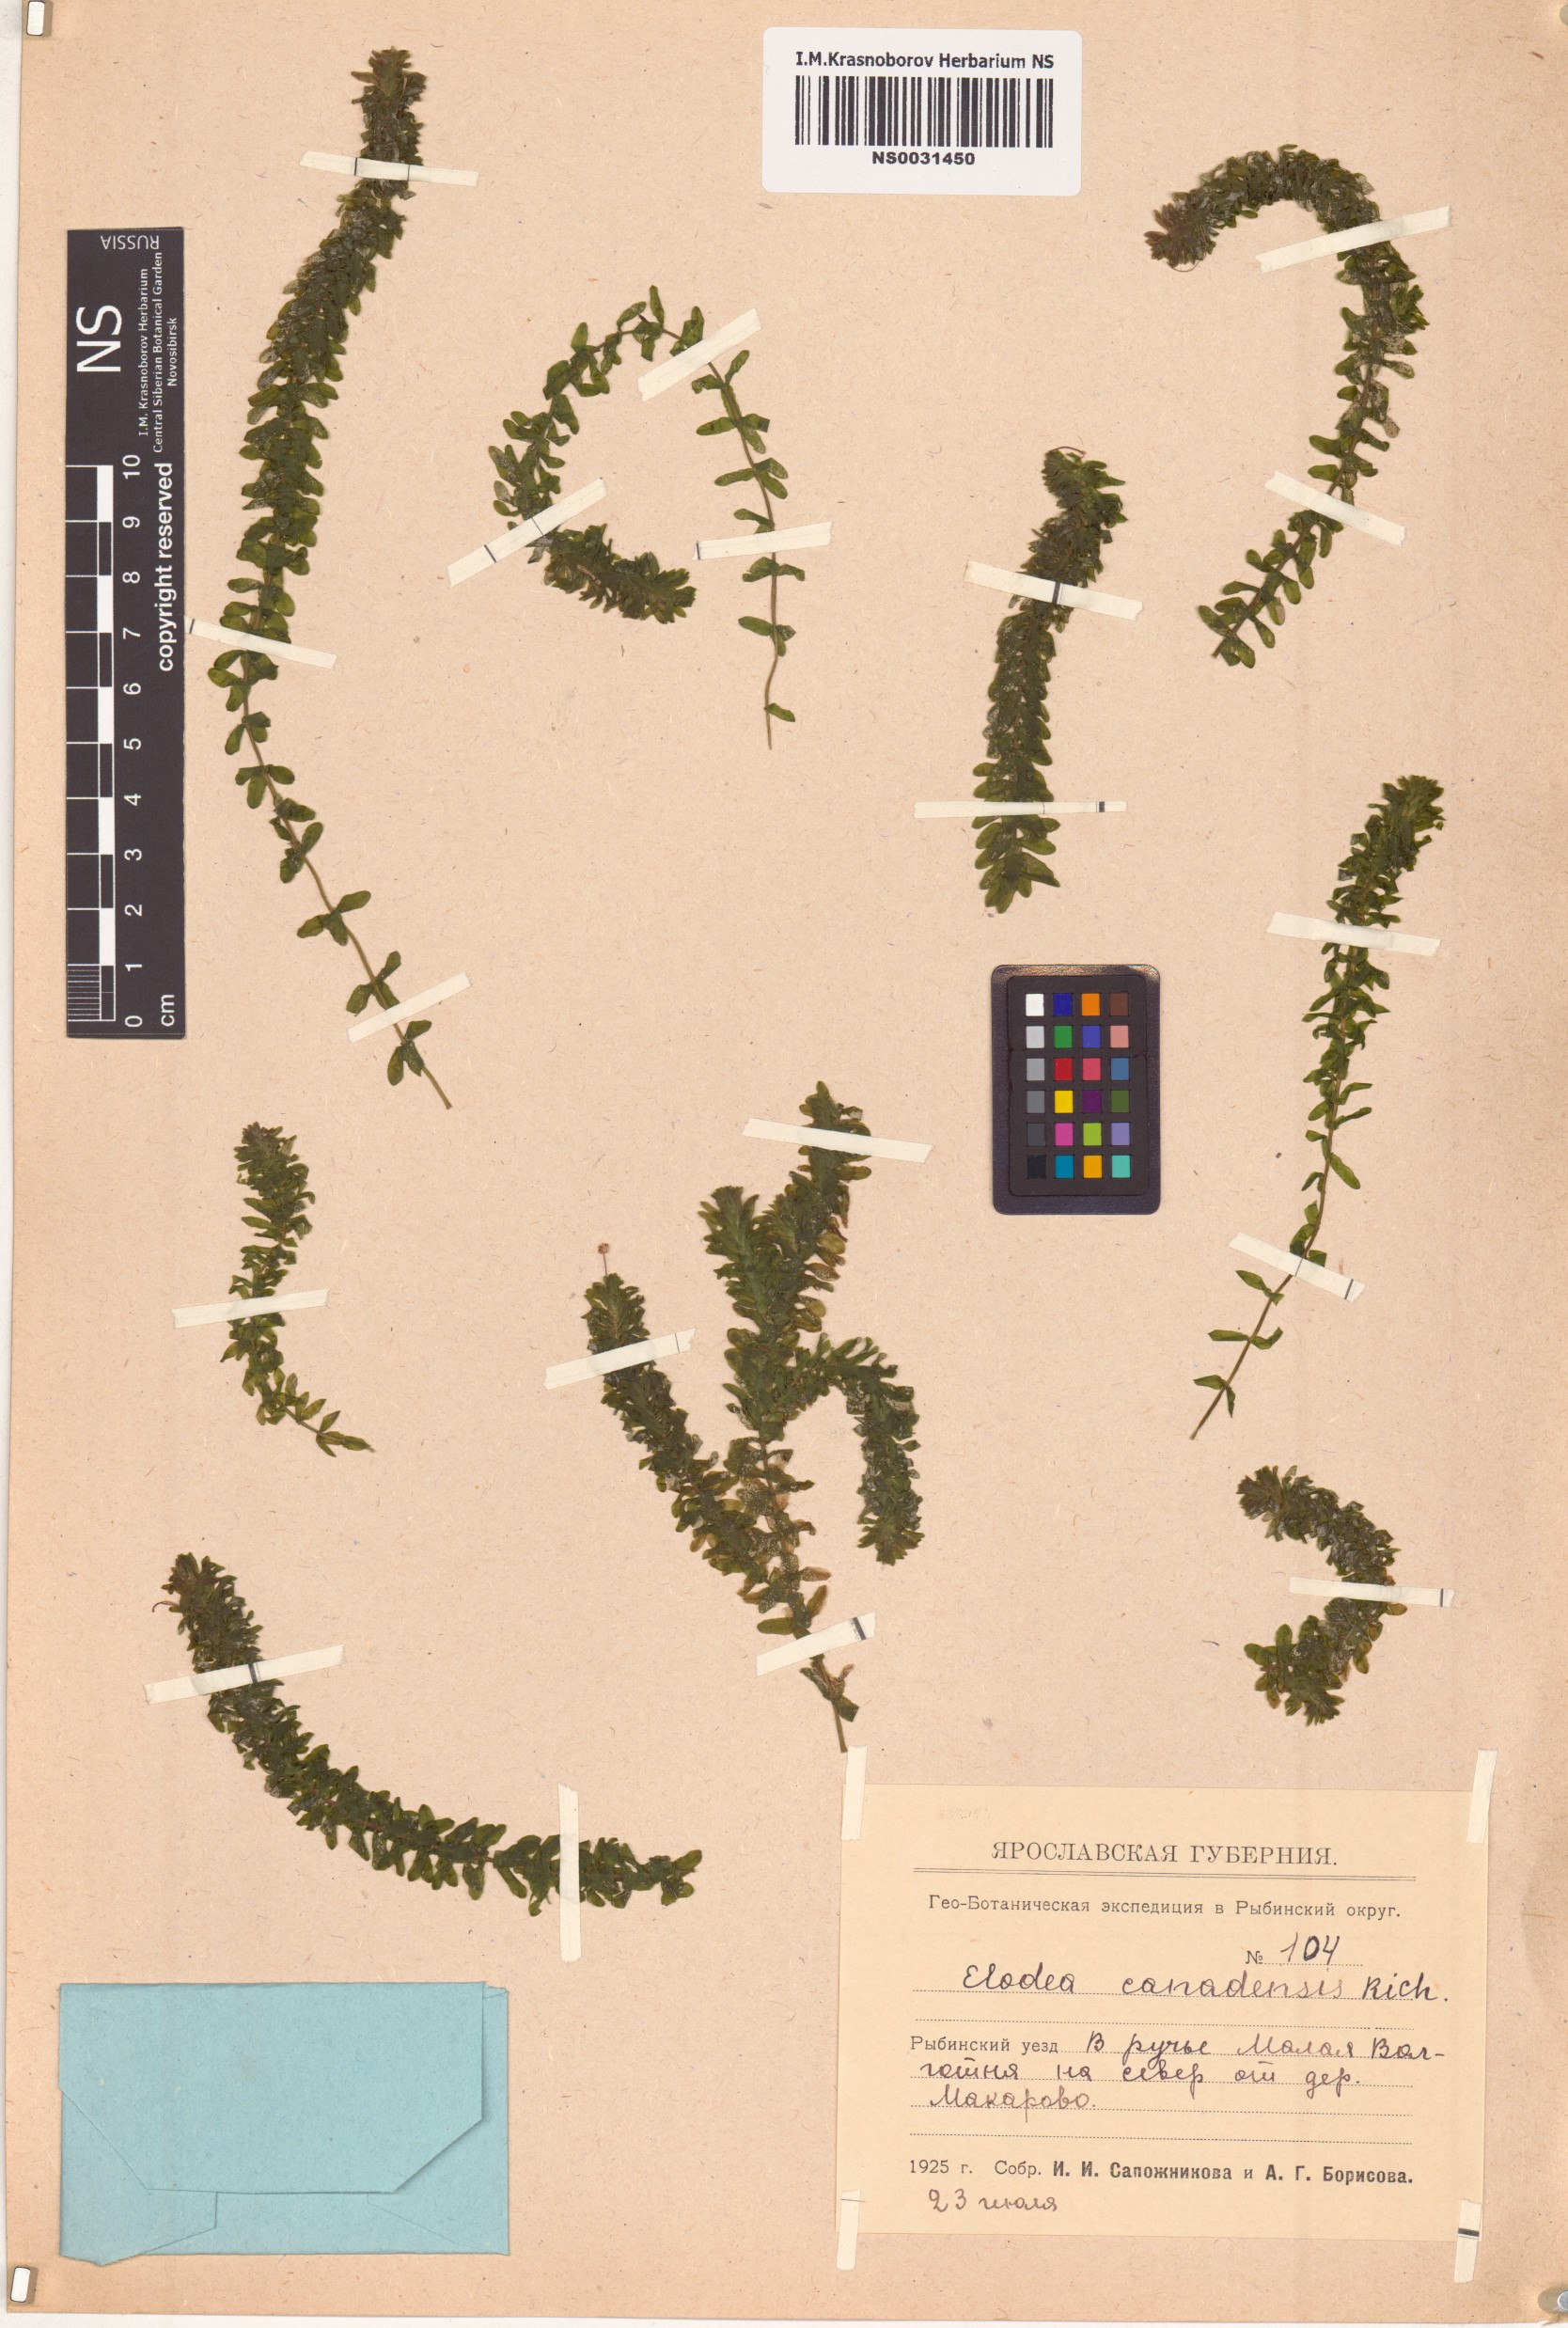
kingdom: Plantae
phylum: Tracheophyta
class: Liliopsida
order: Alismatales
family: Hydrocharitaceae
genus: Elodea
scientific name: Elodea canadensis
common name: Canadian waterweed
